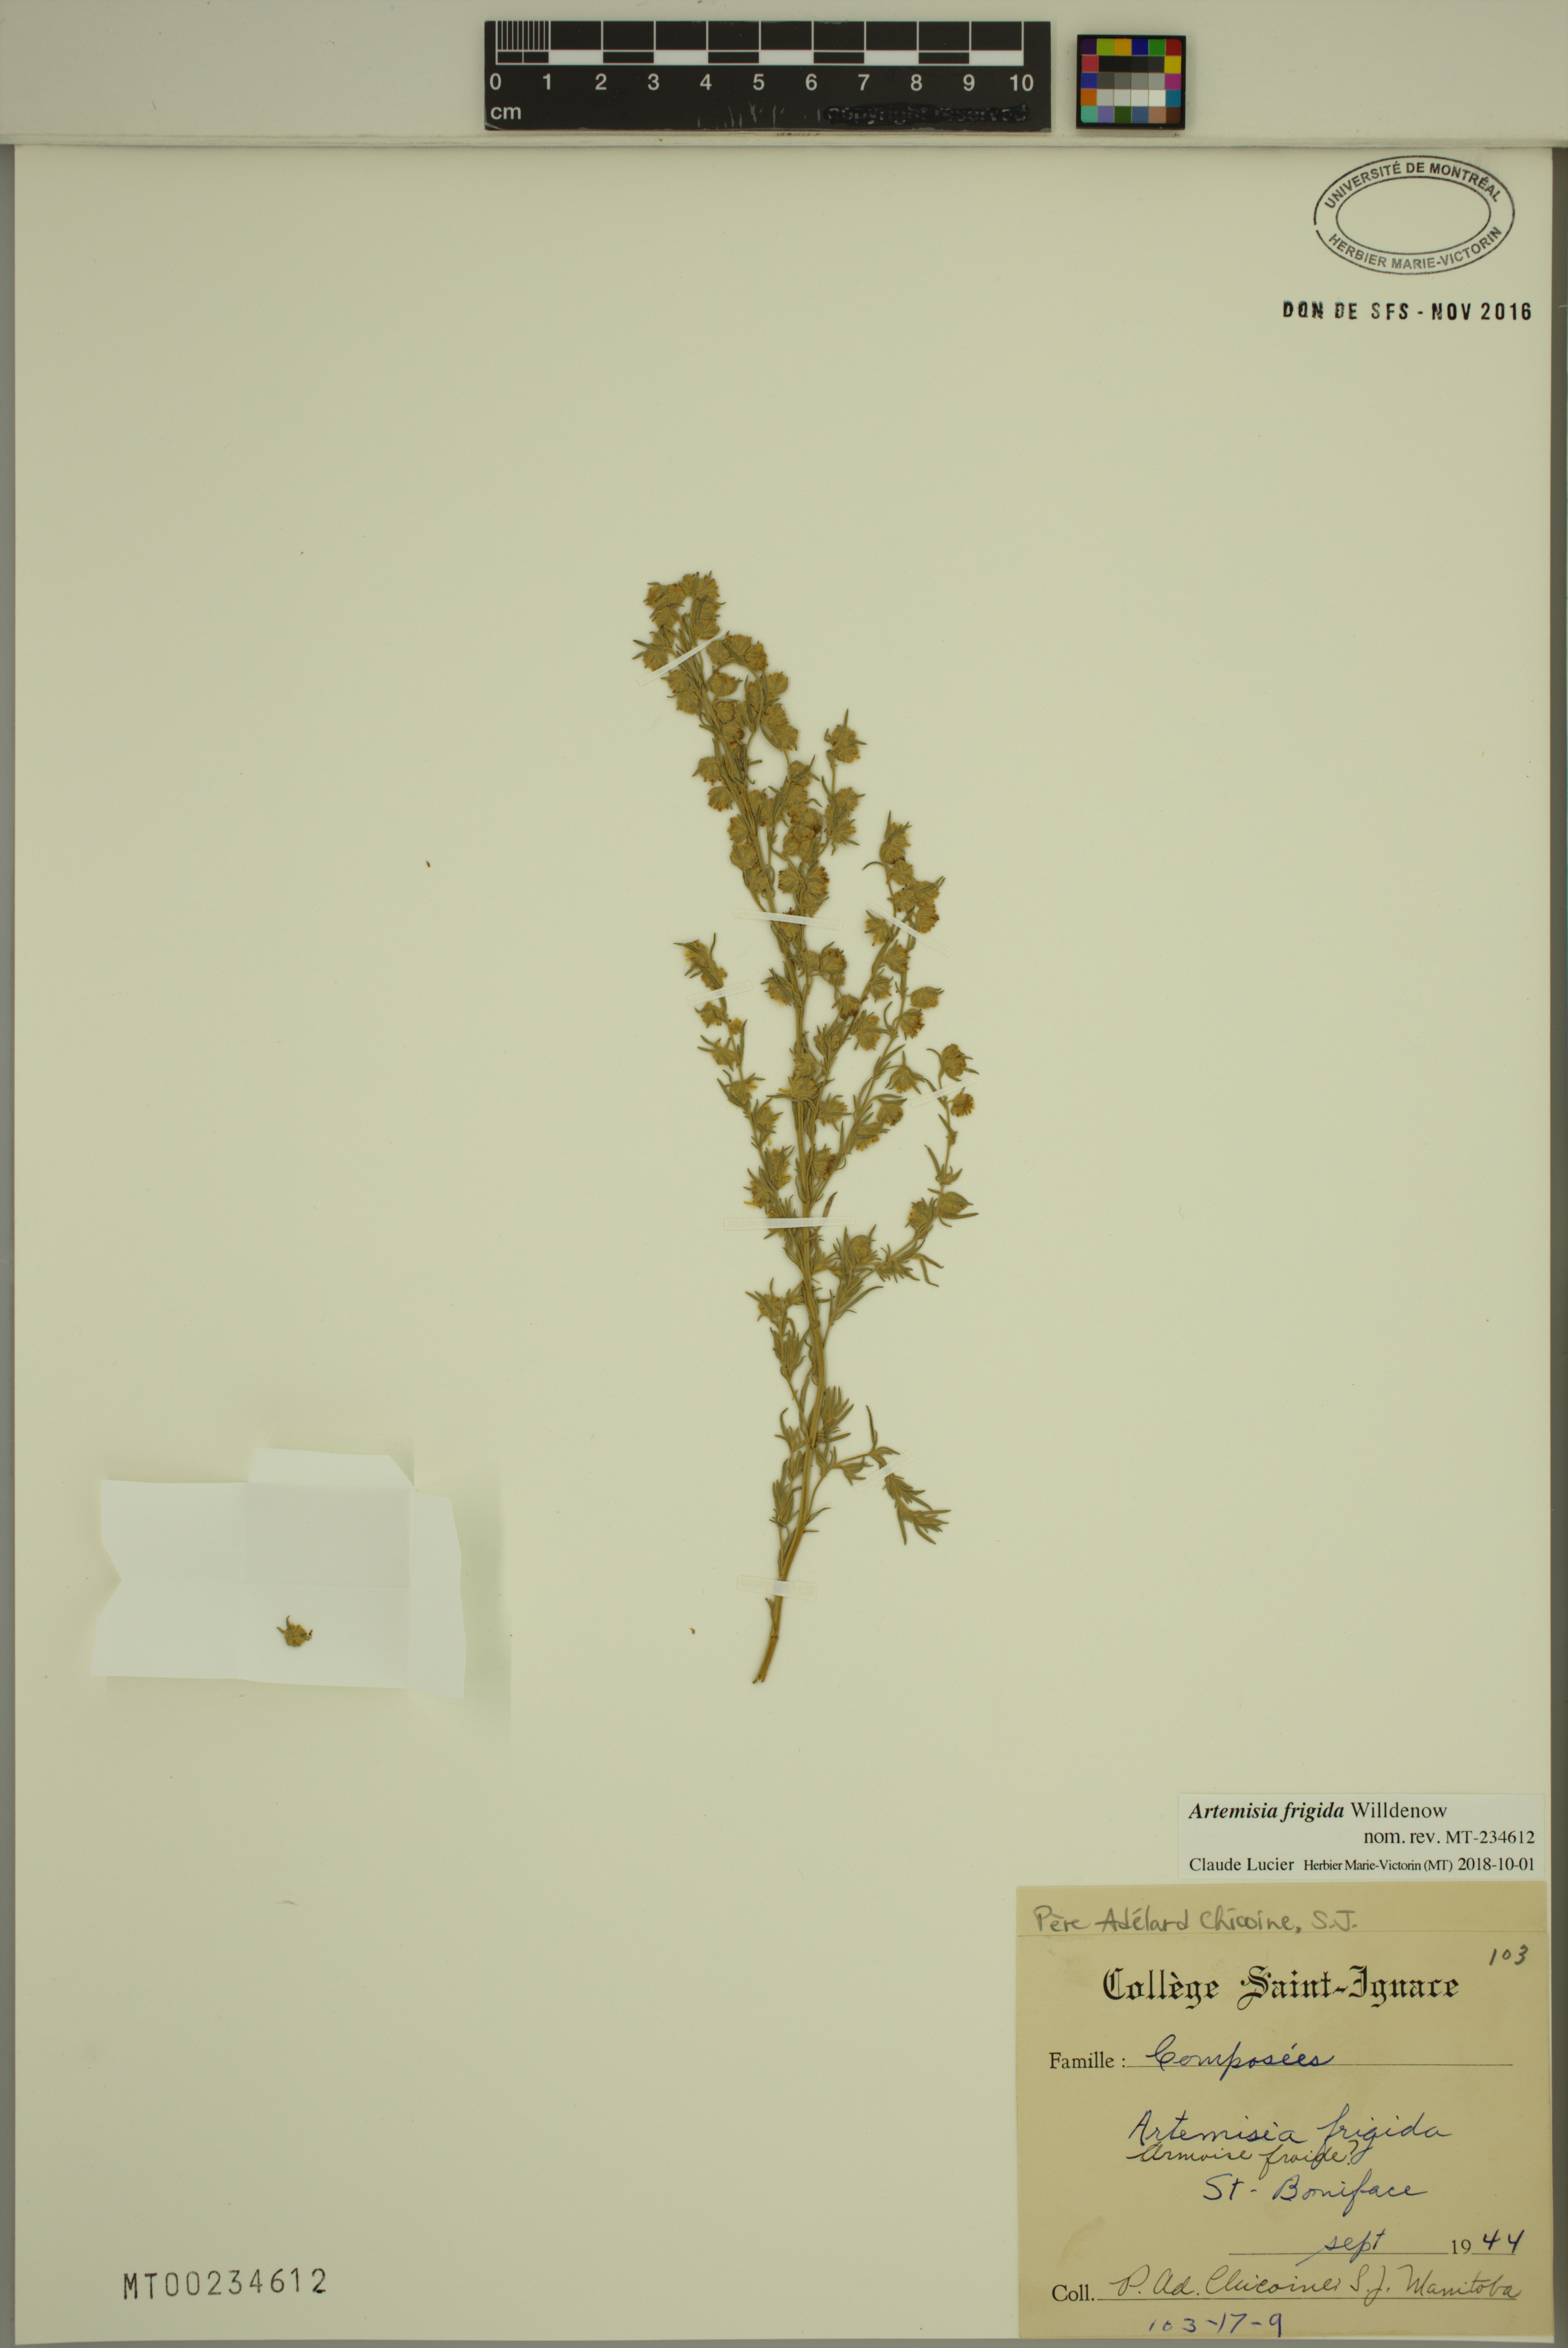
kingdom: Plantae
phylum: Tracheophyta
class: Magnoliopsida
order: Asterales
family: Asteraceae
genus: Artemisia
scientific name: Artemisia frigida
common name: Prairie sagewort
